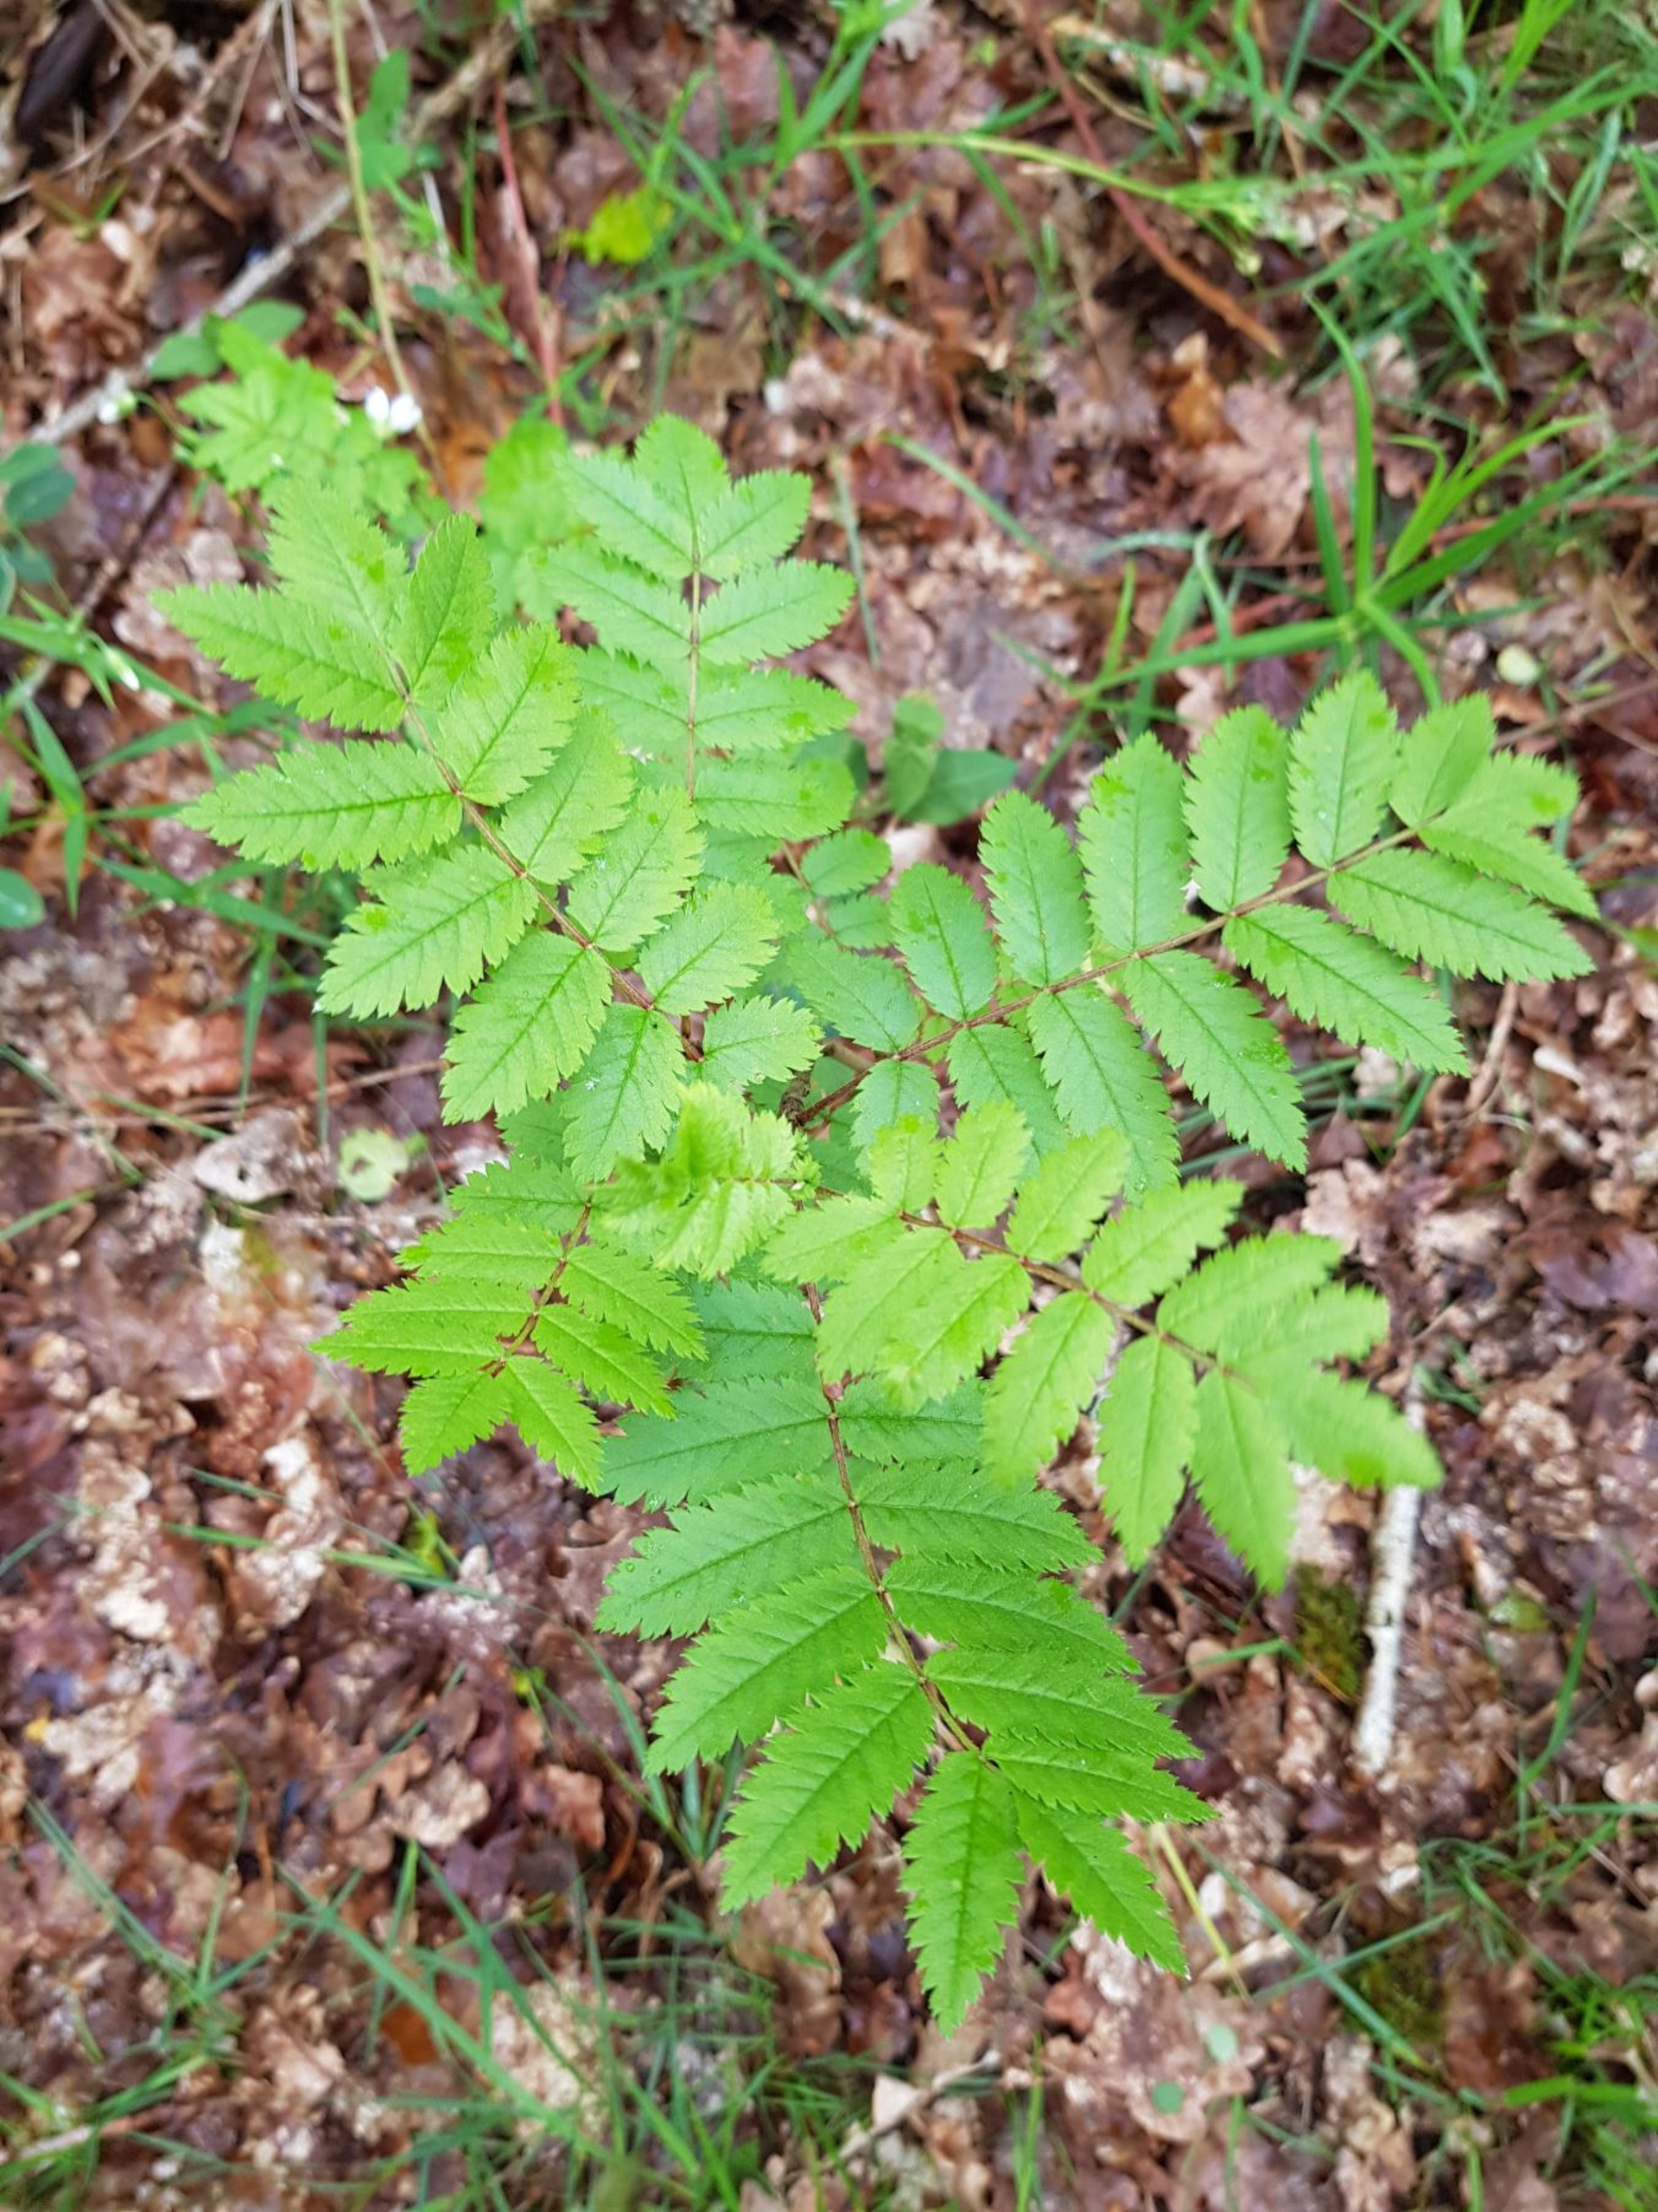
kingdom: Plantae
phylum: Tracheophyta
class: Magnoliopsida
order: Rosales
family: Rosaceae
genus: Sorbus
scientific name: Sorbus aucuparia
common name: Almindelig røn
